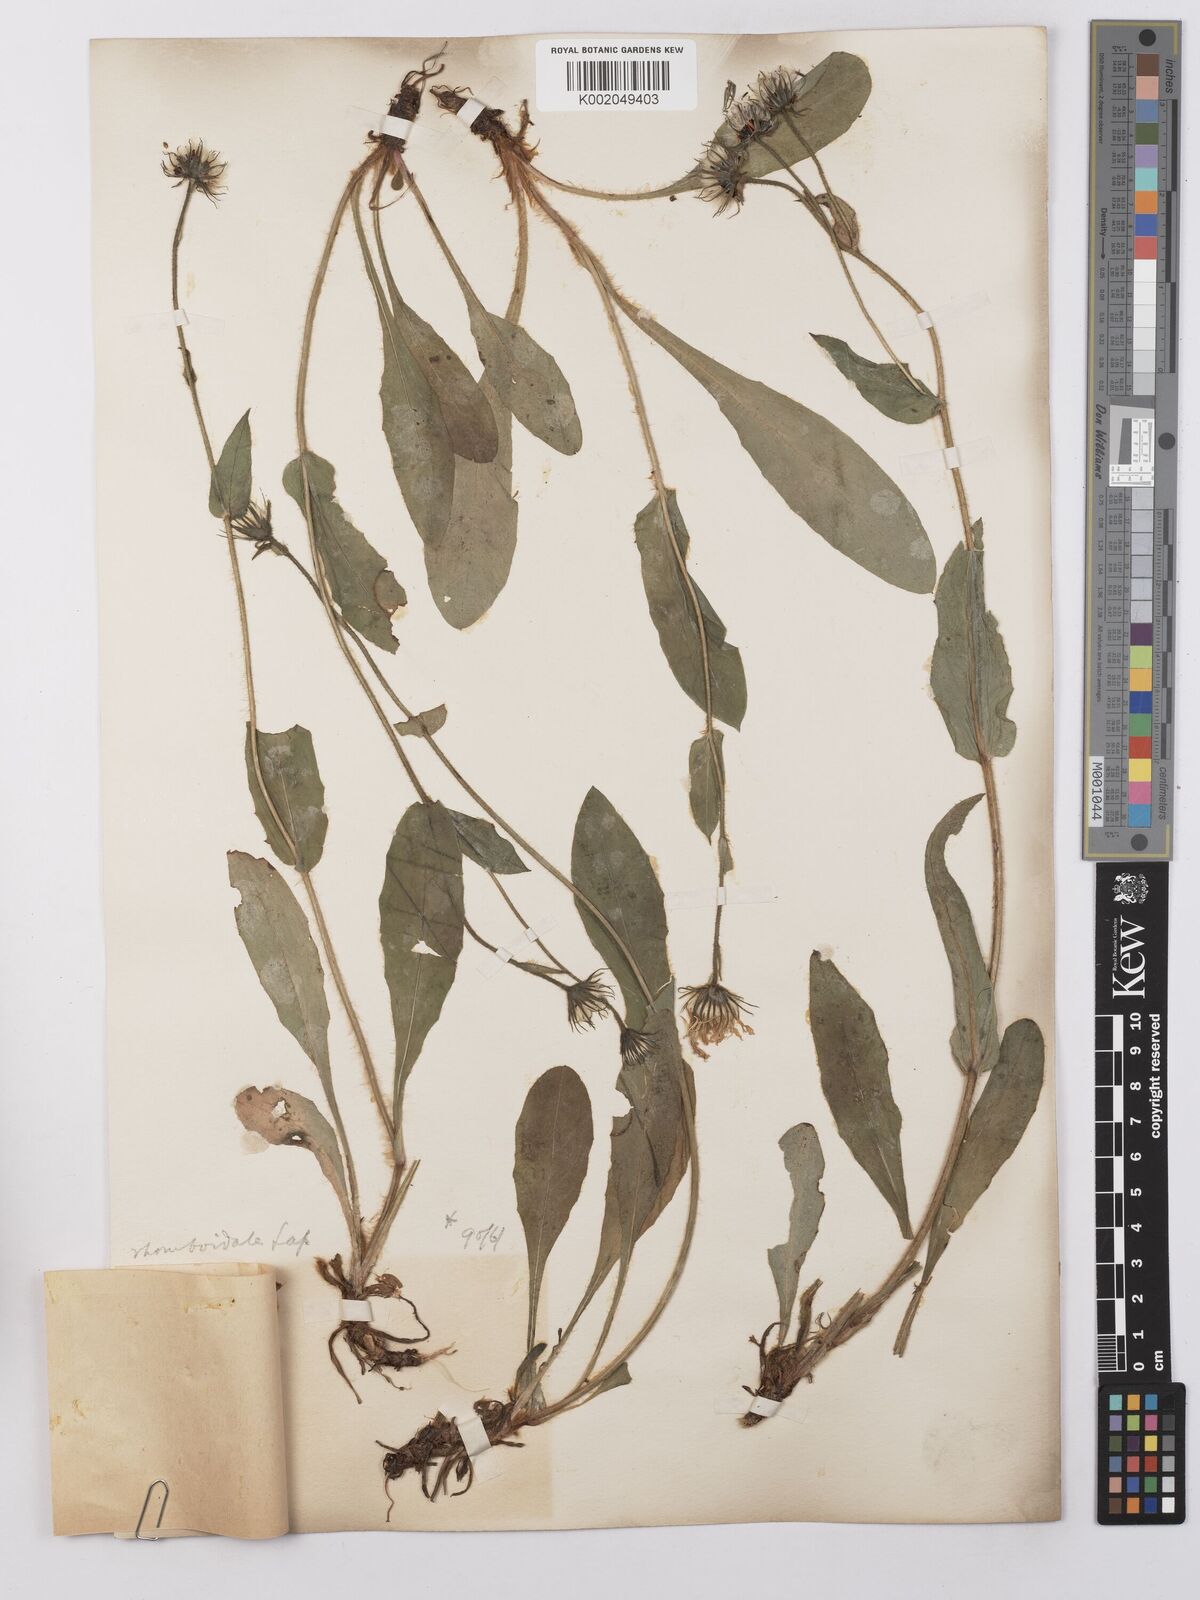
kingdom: Plantae
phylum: Tracheophyta
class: Magnoliopsida
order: Asterales
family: Asteraceae
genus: Hieracium
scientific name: Hieracium cerinthoides
